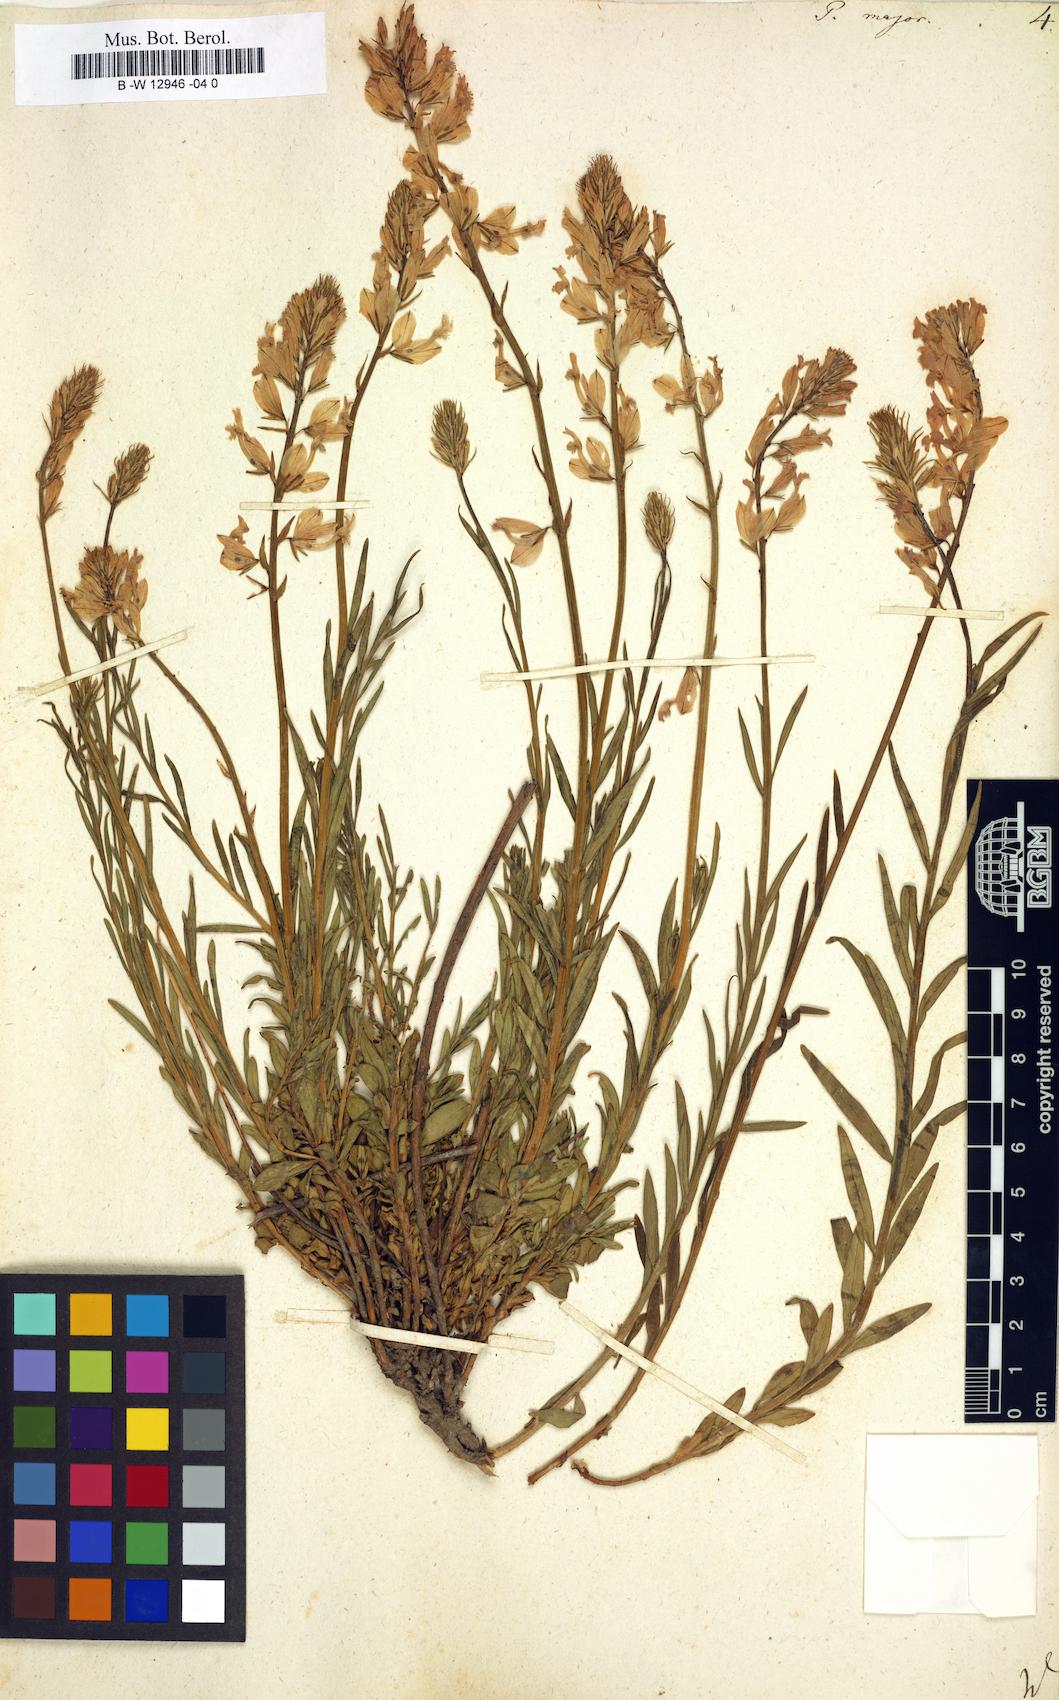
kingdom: Plantae
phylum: Tracheophyta
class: Magnoliopsida
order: Fabales
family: Polygalaceae
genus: Polygala
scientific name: Polygala major
